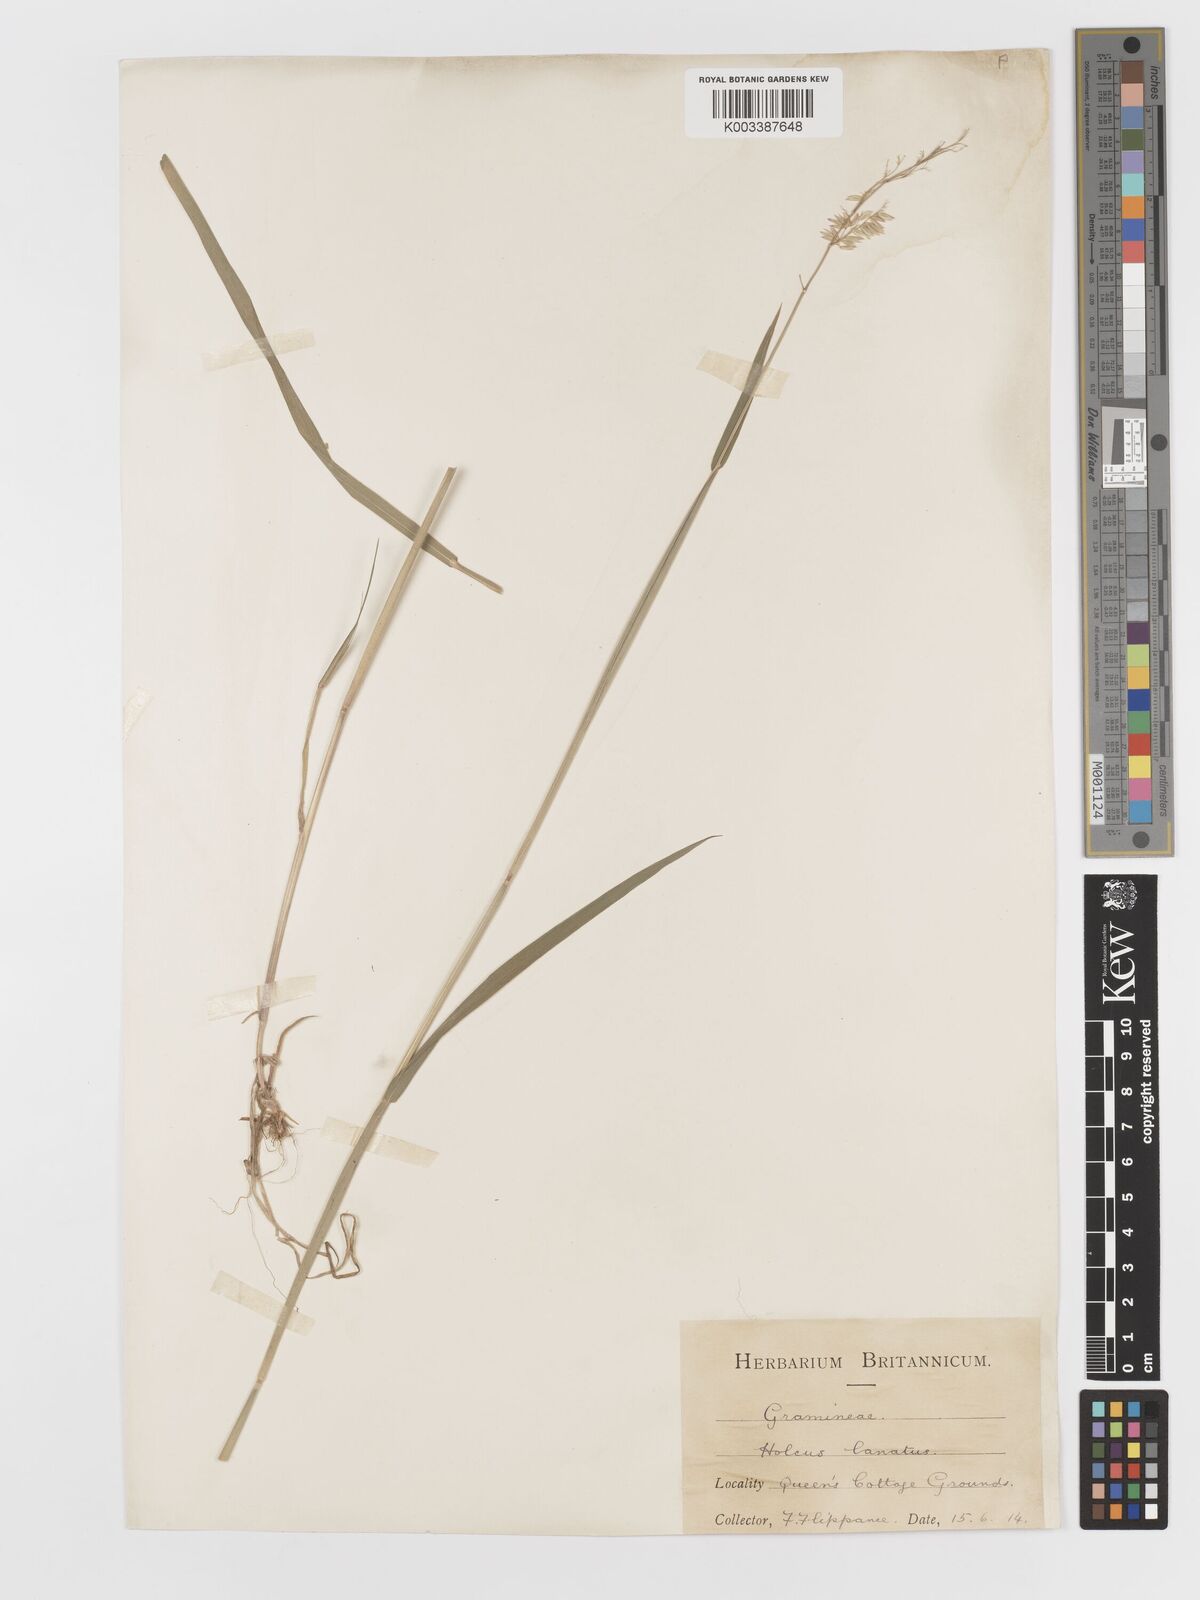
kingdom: Plantae
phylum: Tracheophyta
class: Liliopsida
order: Poales
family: Poaceae
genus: Holcus
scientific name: Holcus lanatus
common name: Yorkshire-fog
